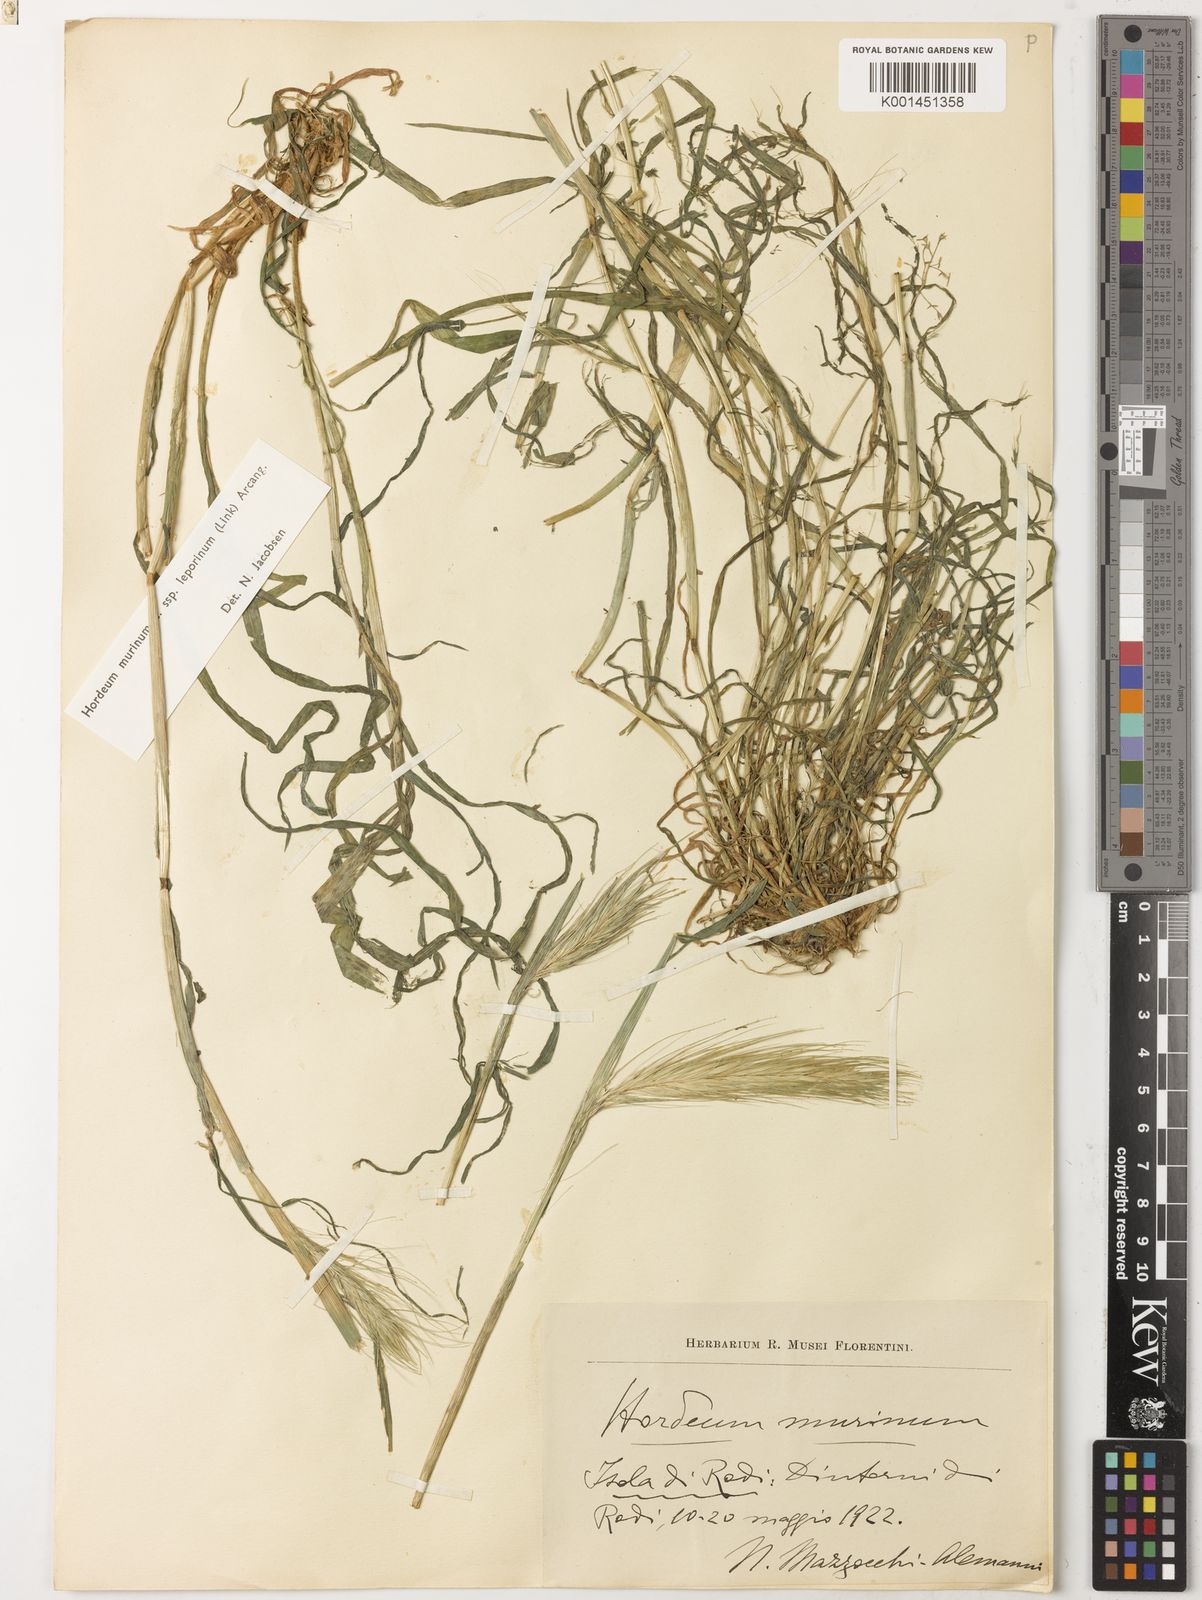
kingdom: Plantae
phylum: Tracheophyta
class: Liliopsida
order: Poales
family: Poaceae
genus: Hordeum
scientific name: Hordeum murinum
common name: Wall barley
